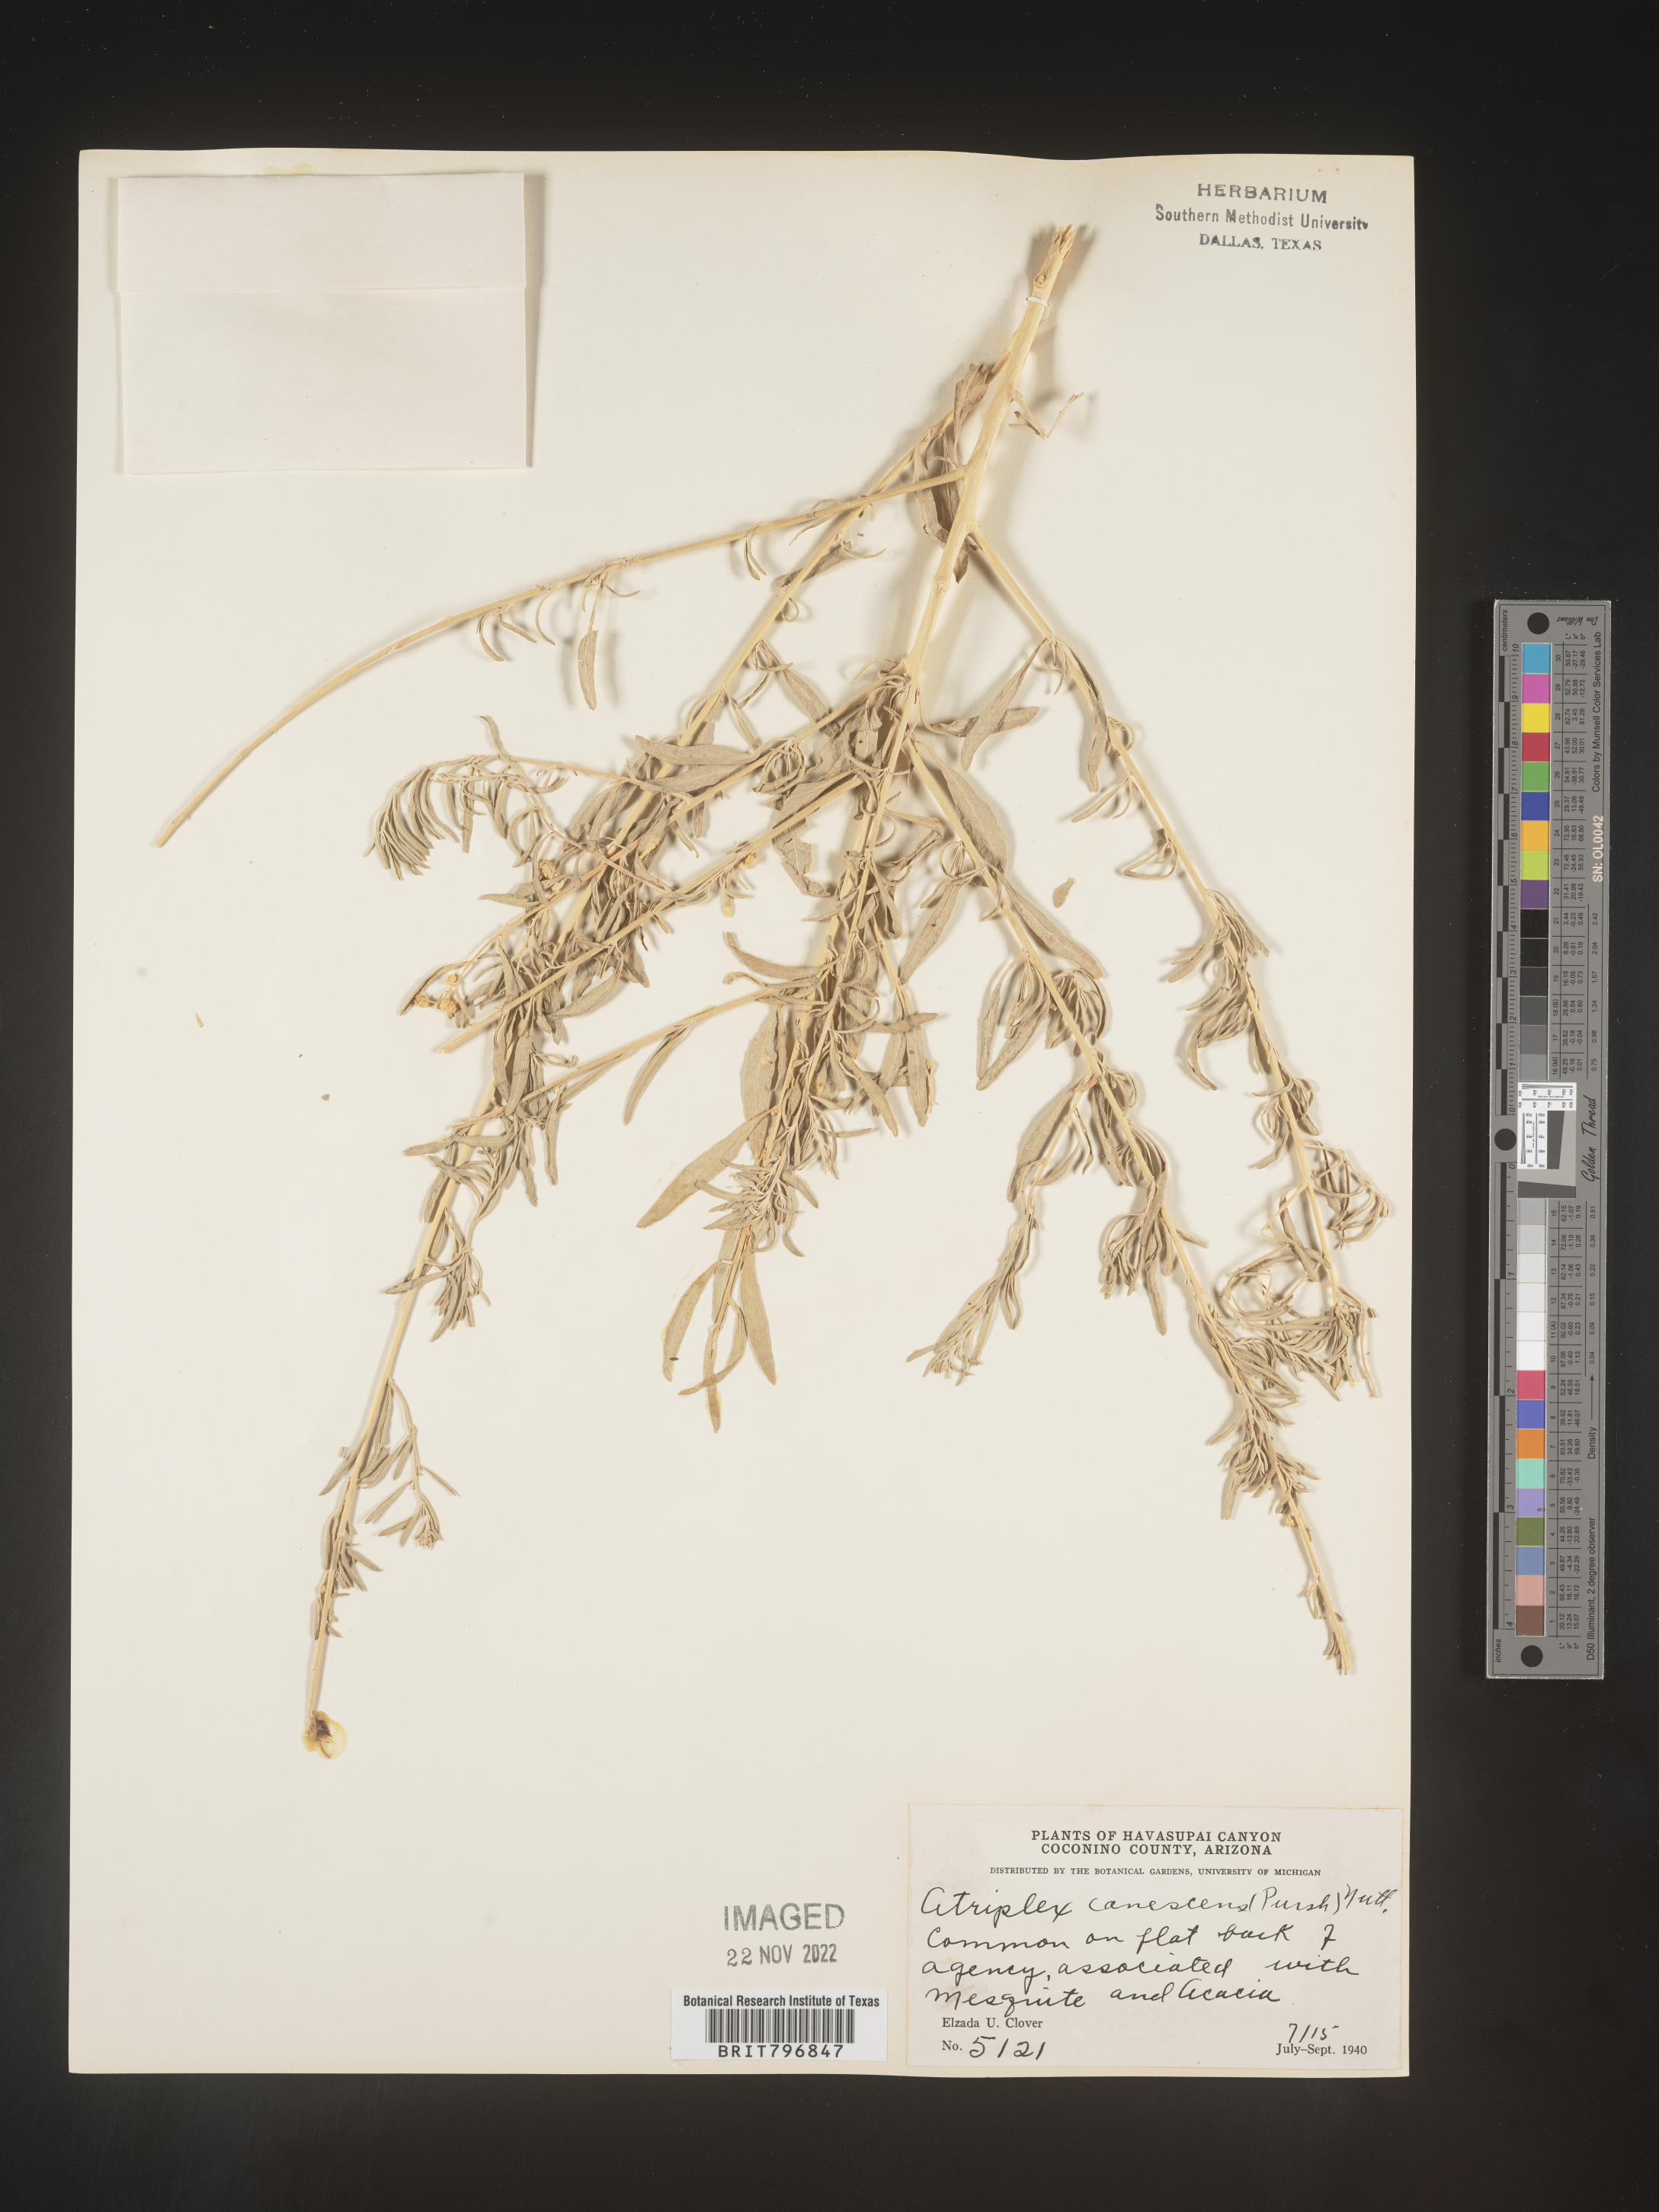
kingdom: Plantae
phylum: Tracheophyta
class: Magnoliopsida
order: Caryophyllales
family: Amaranthaceae
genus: Atriplex
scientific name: Atriplex canescens
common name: Four-wing saltbush
